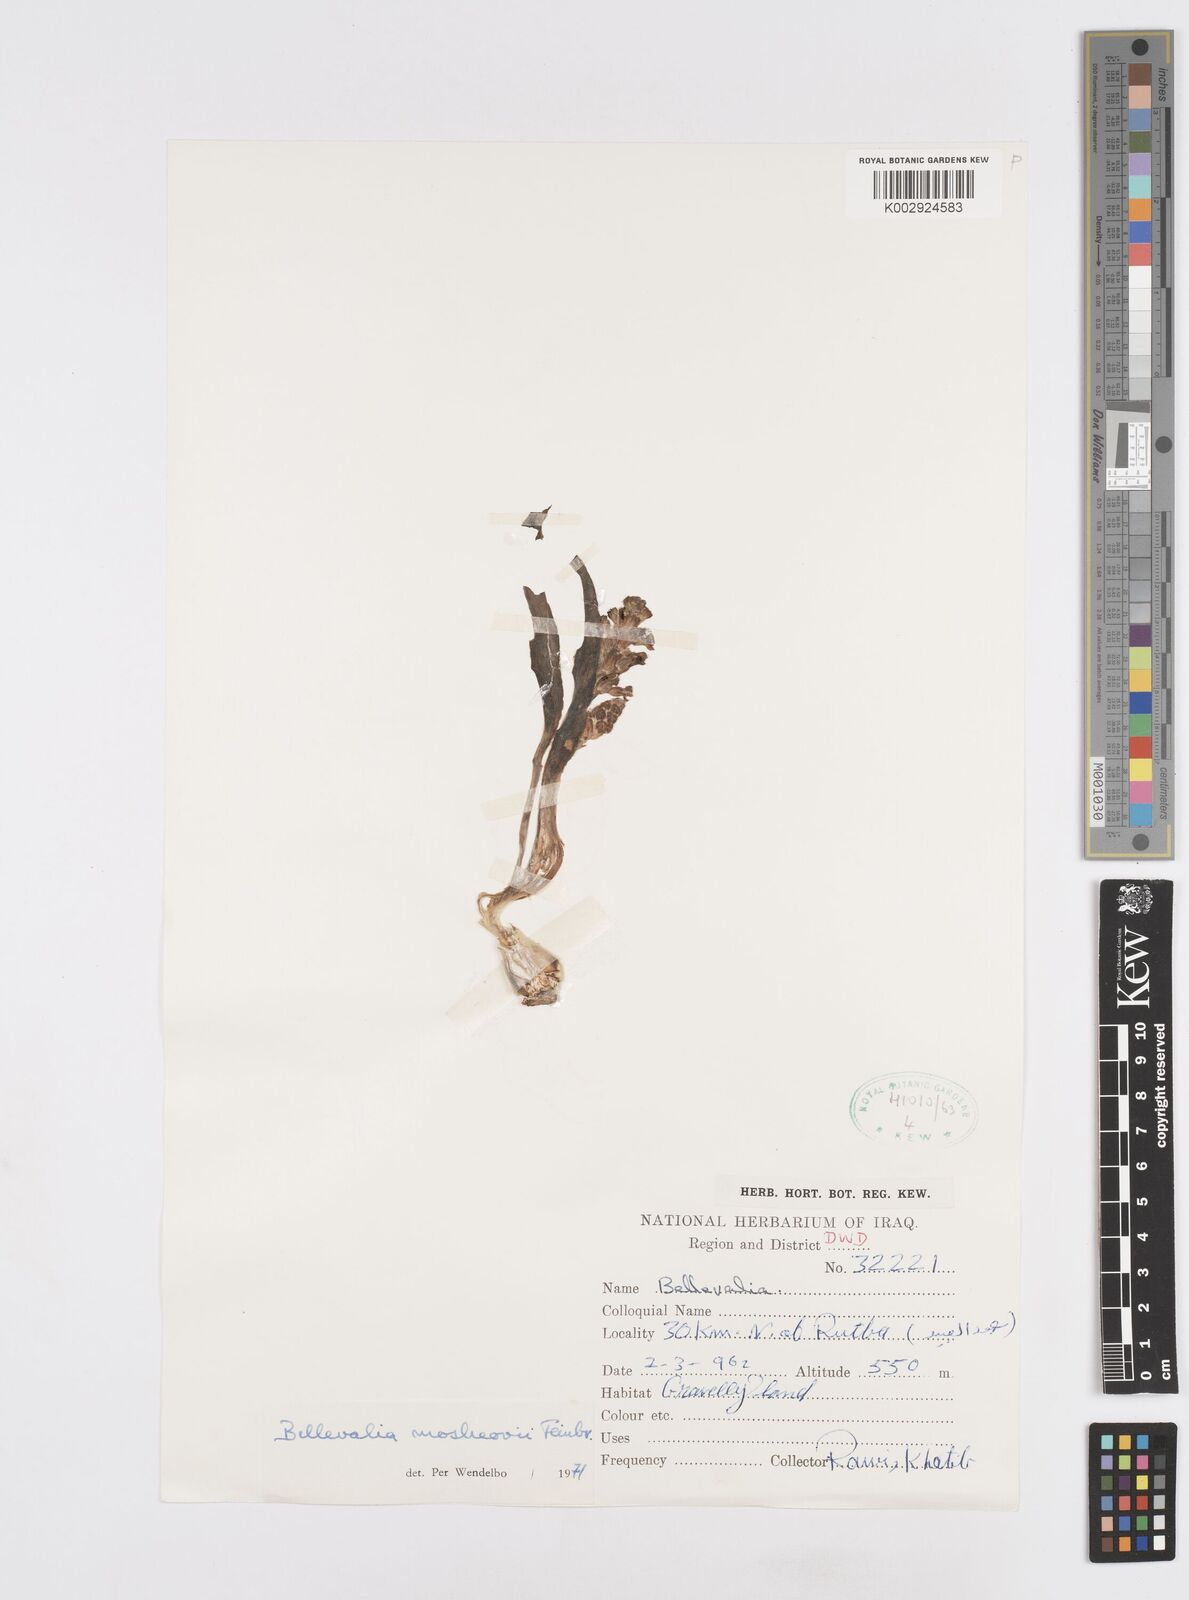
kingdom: Plantae
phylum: Tracheophyta
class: Liliopsida
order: Asparagales
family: Asparagaceae
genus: Bellevalia
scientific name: Bellevalia mosheovii
